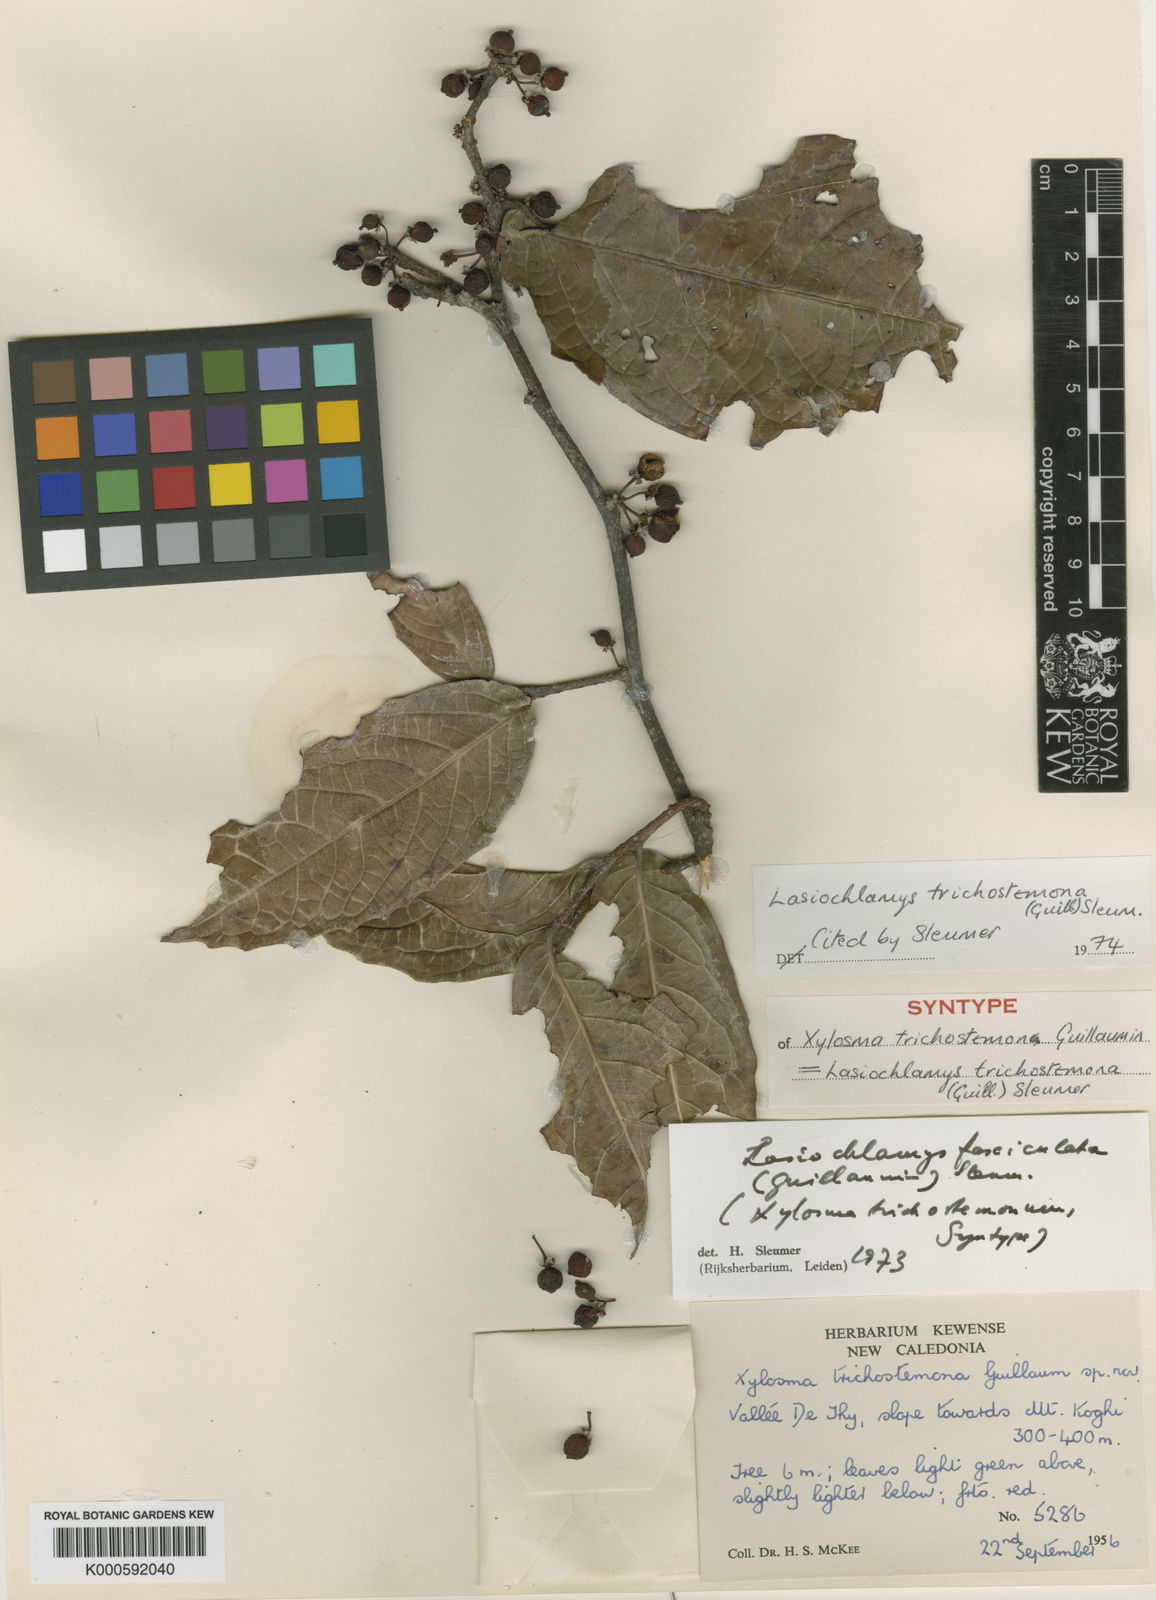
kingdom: Plantae
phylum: Tracheophyta
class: Magnoliopsida
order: Malpighiales
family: Salicaceae
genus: Lasiochlamys
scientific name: Lasiochlamys fasciculata
